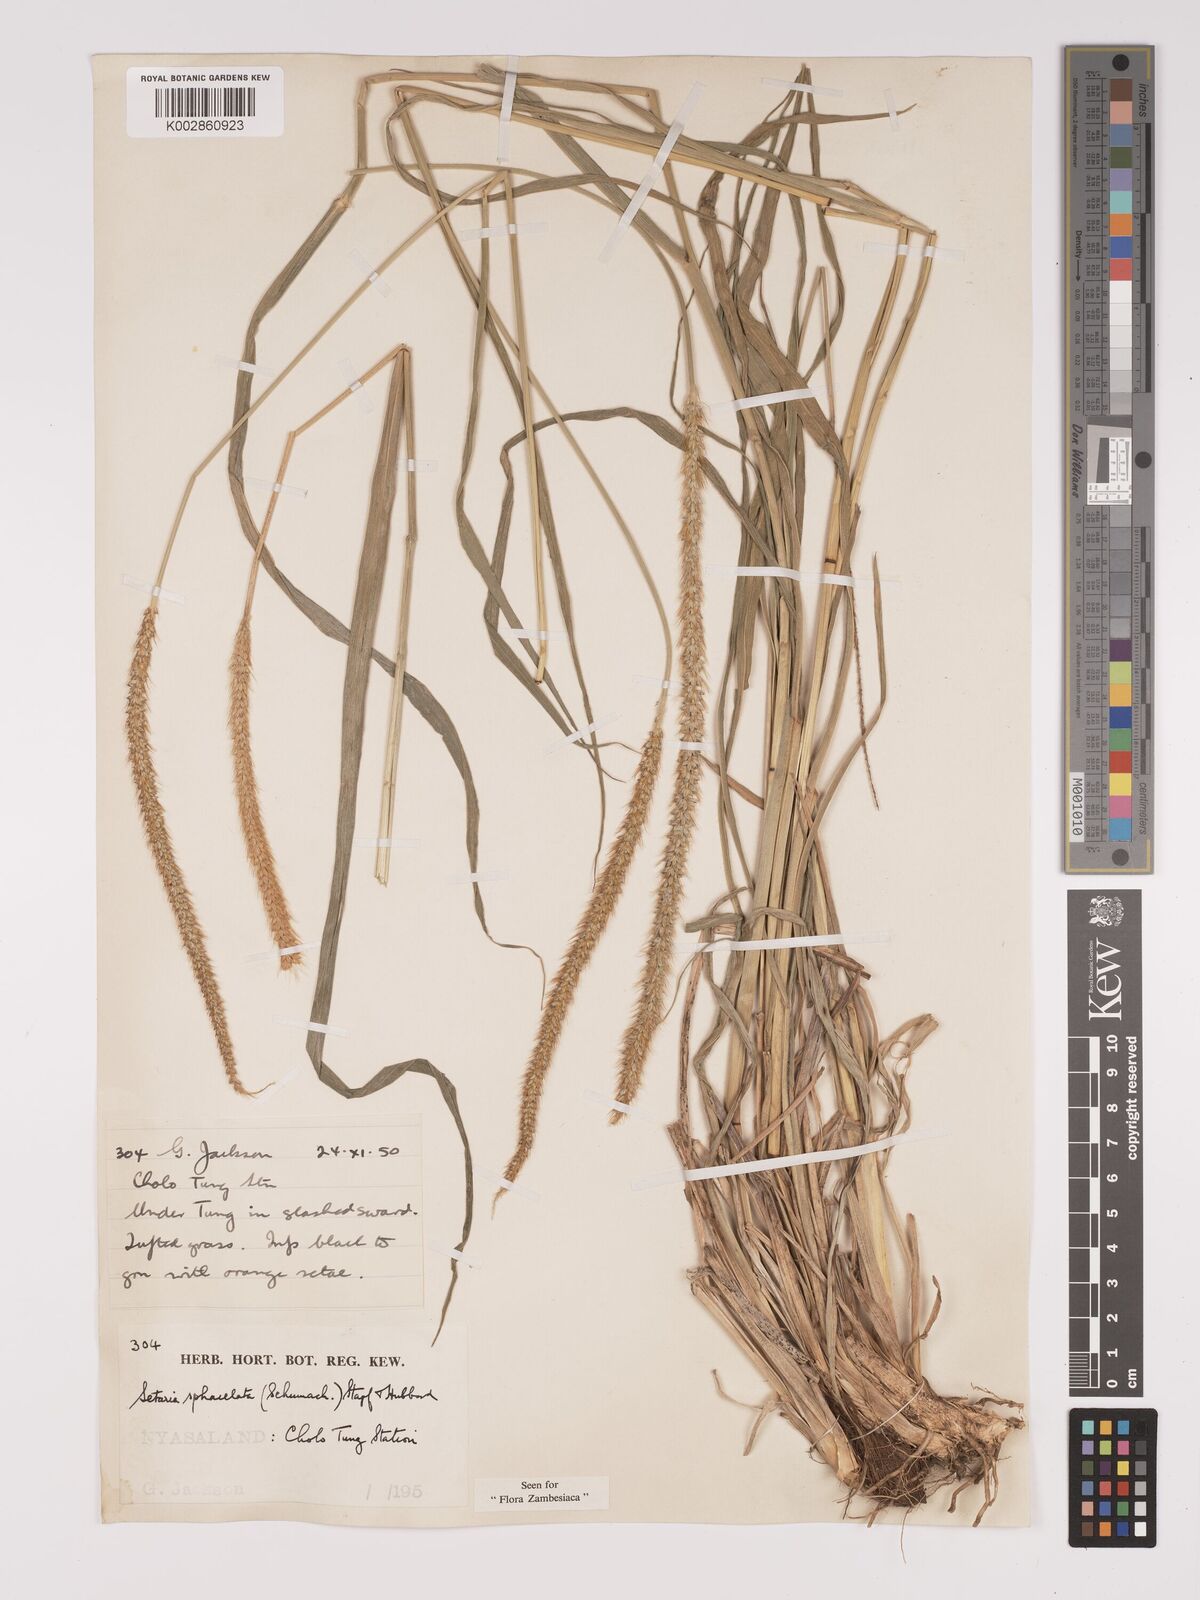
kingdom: Plantae
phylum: Tracheophyta
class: Liliopsida
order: Poales
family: Poaceae
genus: Setaria
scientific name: Setaria sphacelata
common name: African bristlegrass
